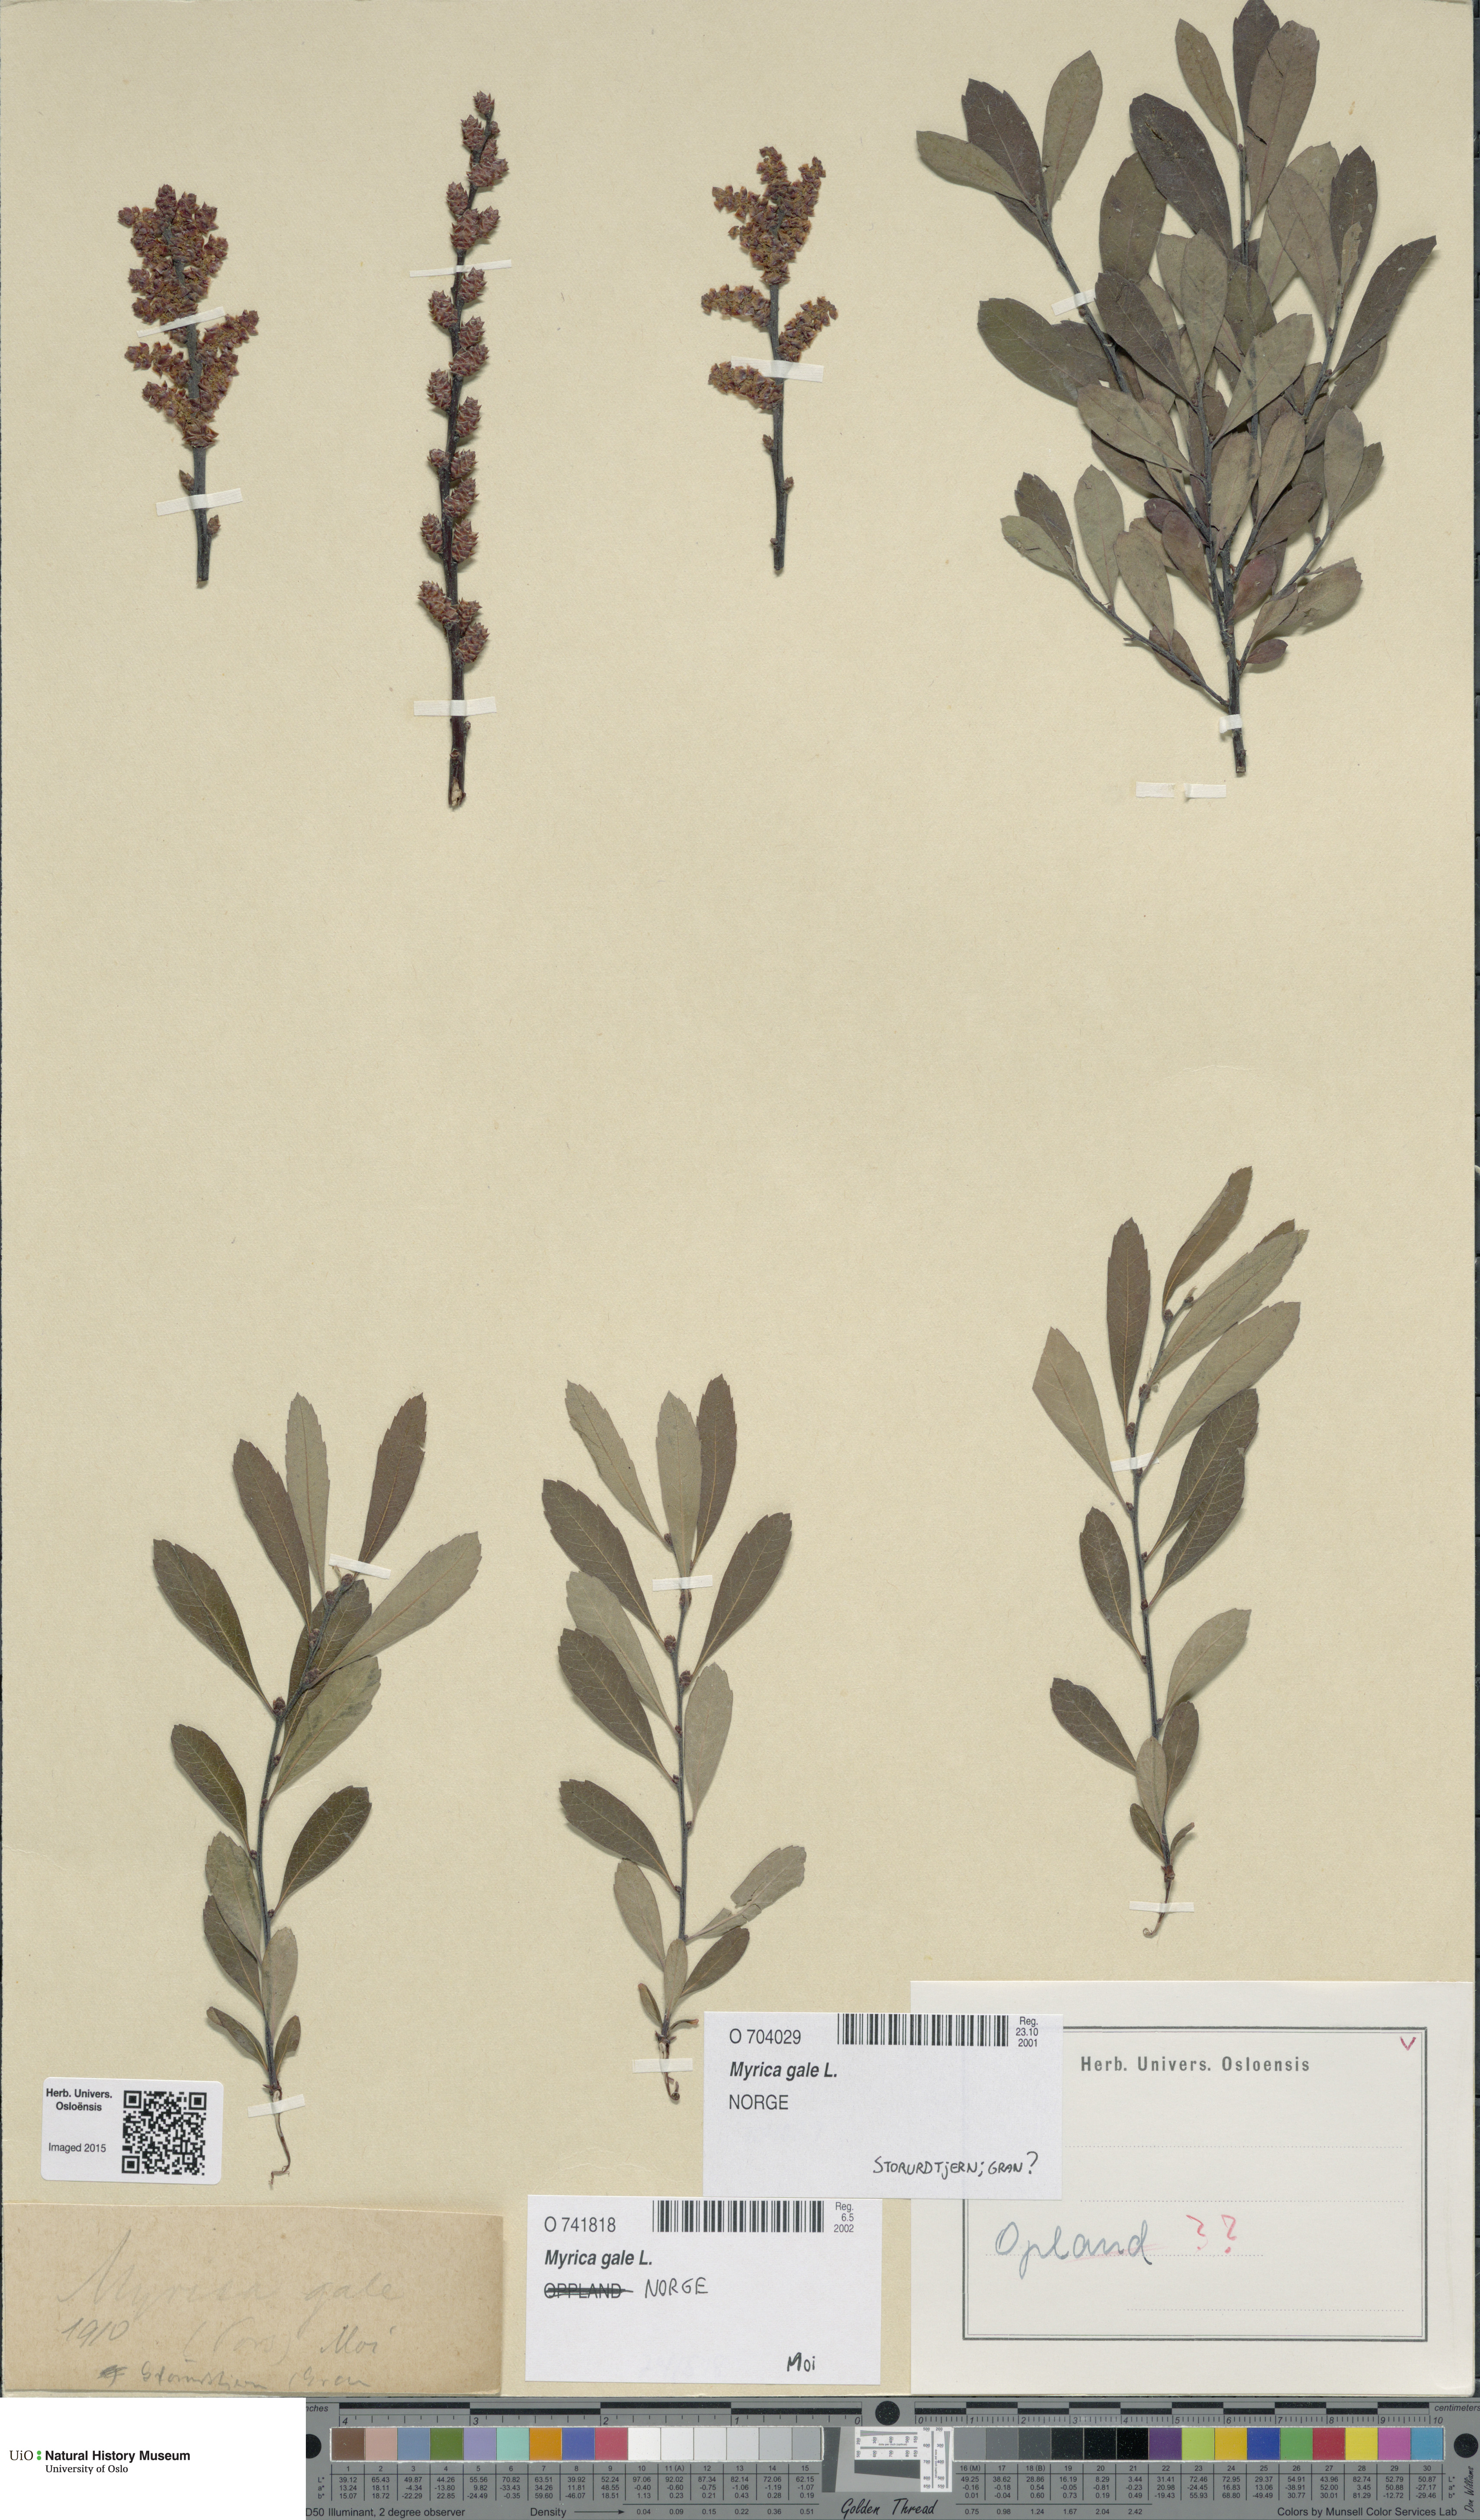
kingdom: Plantae
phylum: Tracheophyta
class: Magnoliopsida
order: Fagales
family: Myricaceae
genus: Myrica
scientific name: Myrica gale
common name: Sweet gale
